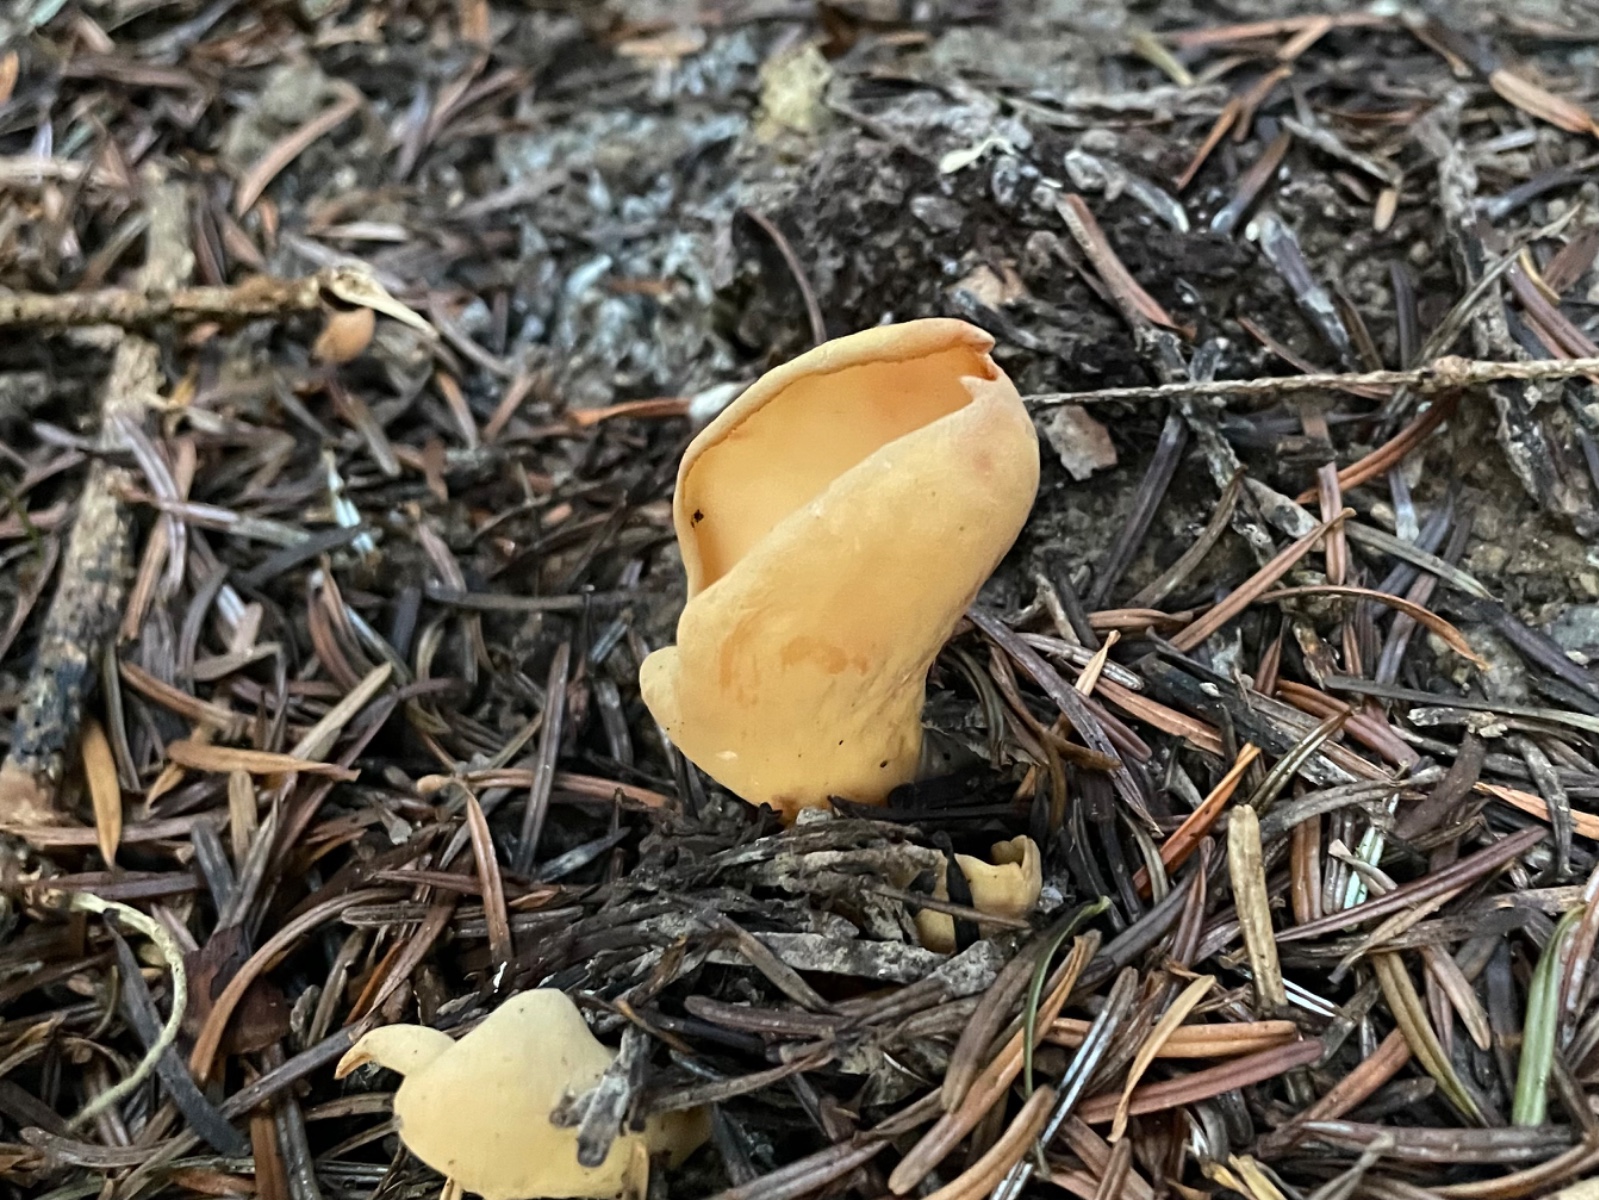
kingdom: Fungi
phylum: Ascomycota
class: Pezizomycetes
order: Pezizales
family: Otideaceae
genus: Otidea
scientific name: Otidea onotica
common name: æsel-ørebæger
